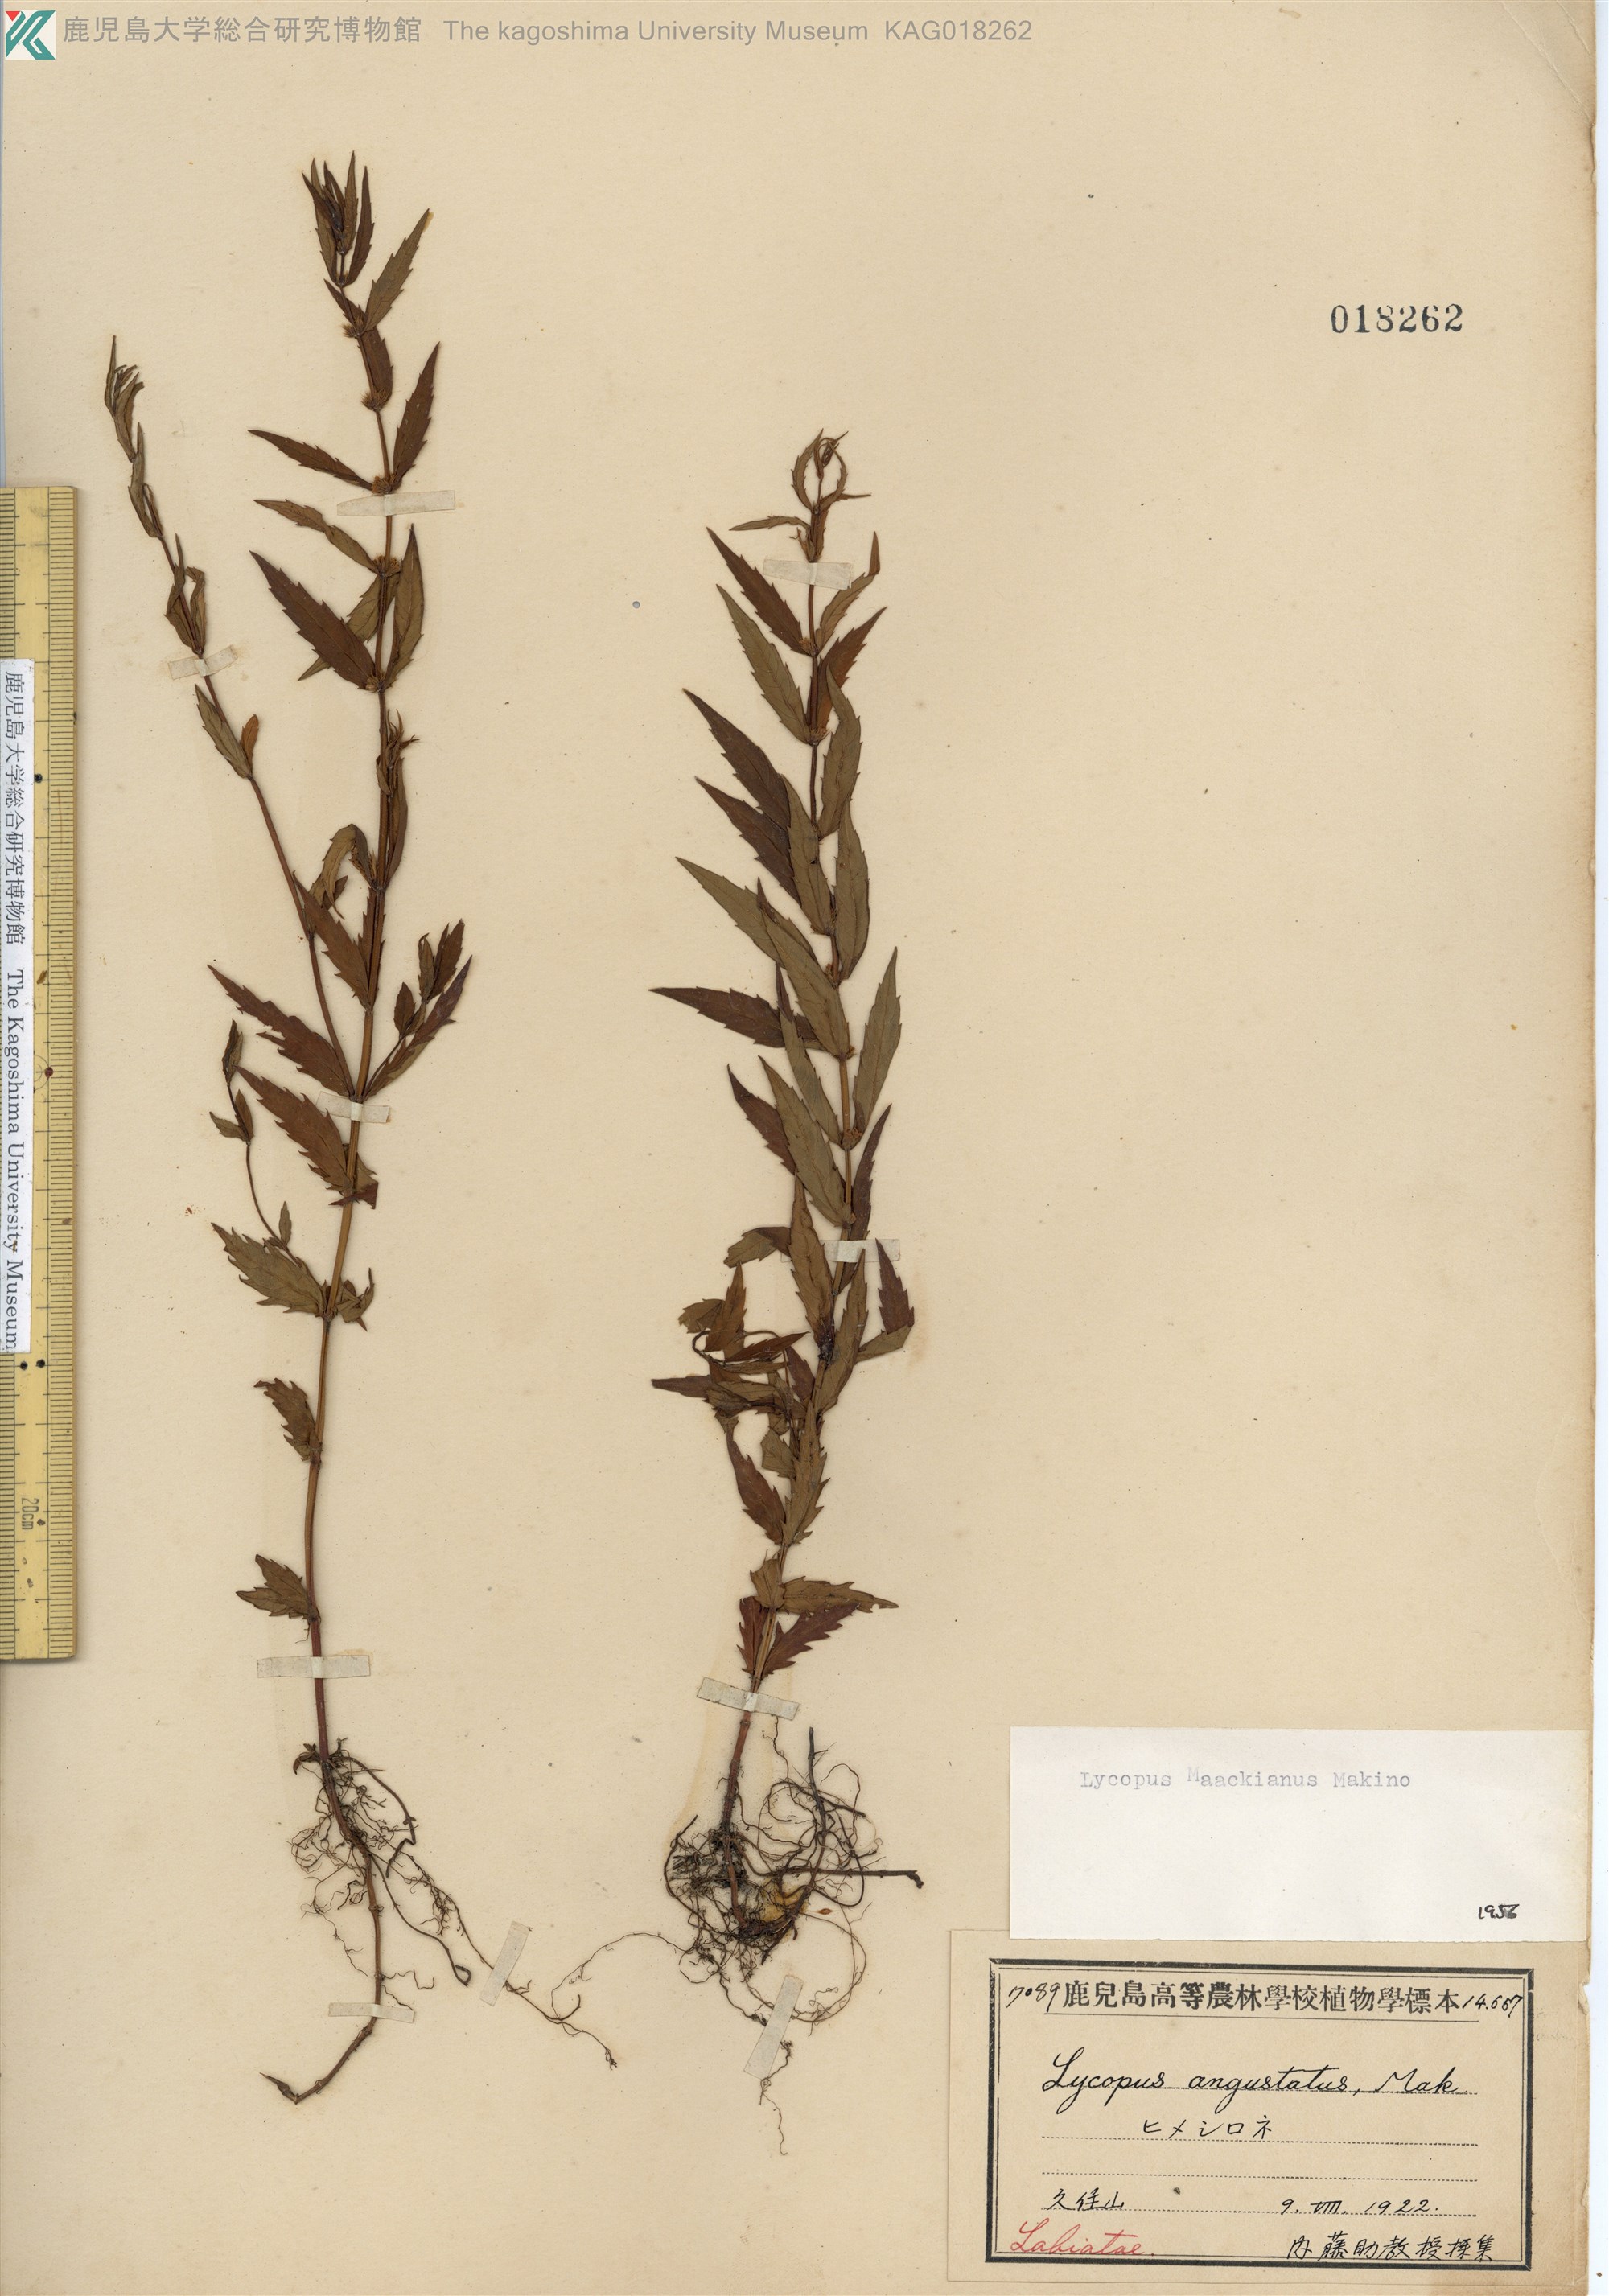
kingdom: Plantae
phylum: Tracheophyta
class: Magnoliopsida
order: Lamiales
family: Lamiaceae
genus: Lycopus
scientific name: Lycopus lucidus
